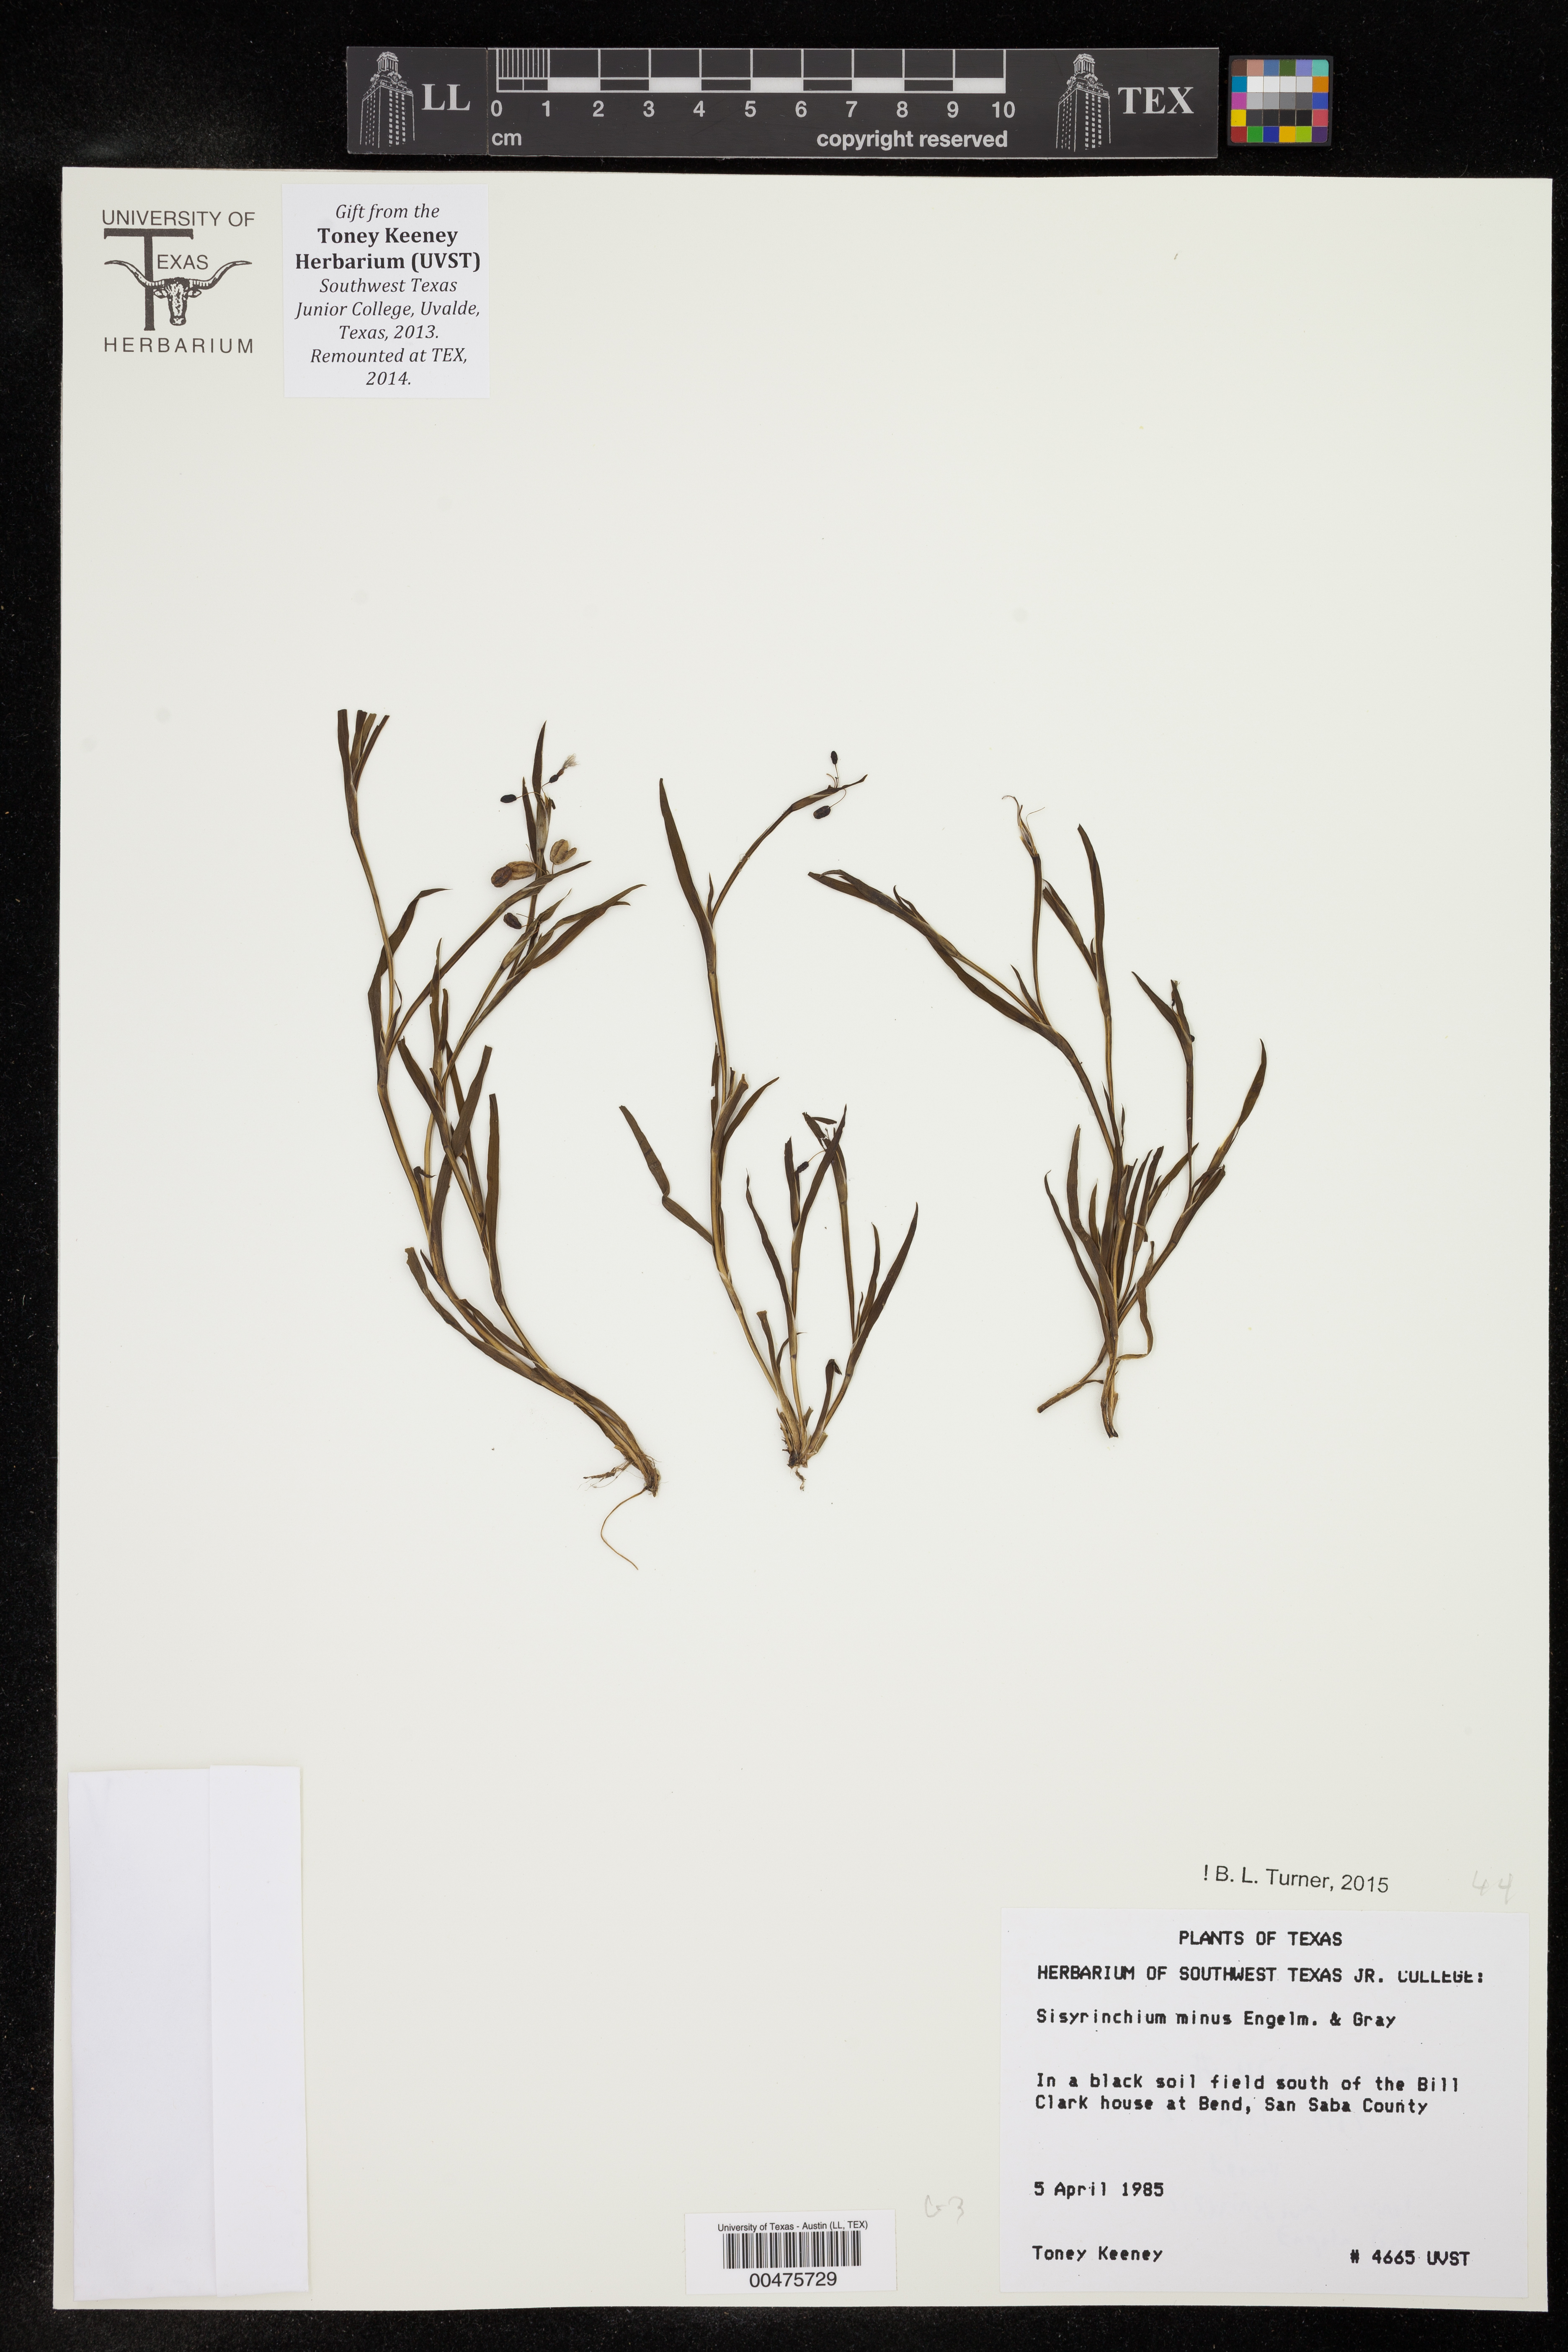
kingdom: Plantae
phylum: Tracheophyta
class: Liliopsida
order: Asparagales
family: Iridaceae
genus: Sisyrinchium
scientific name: Sisyrinchium minus
